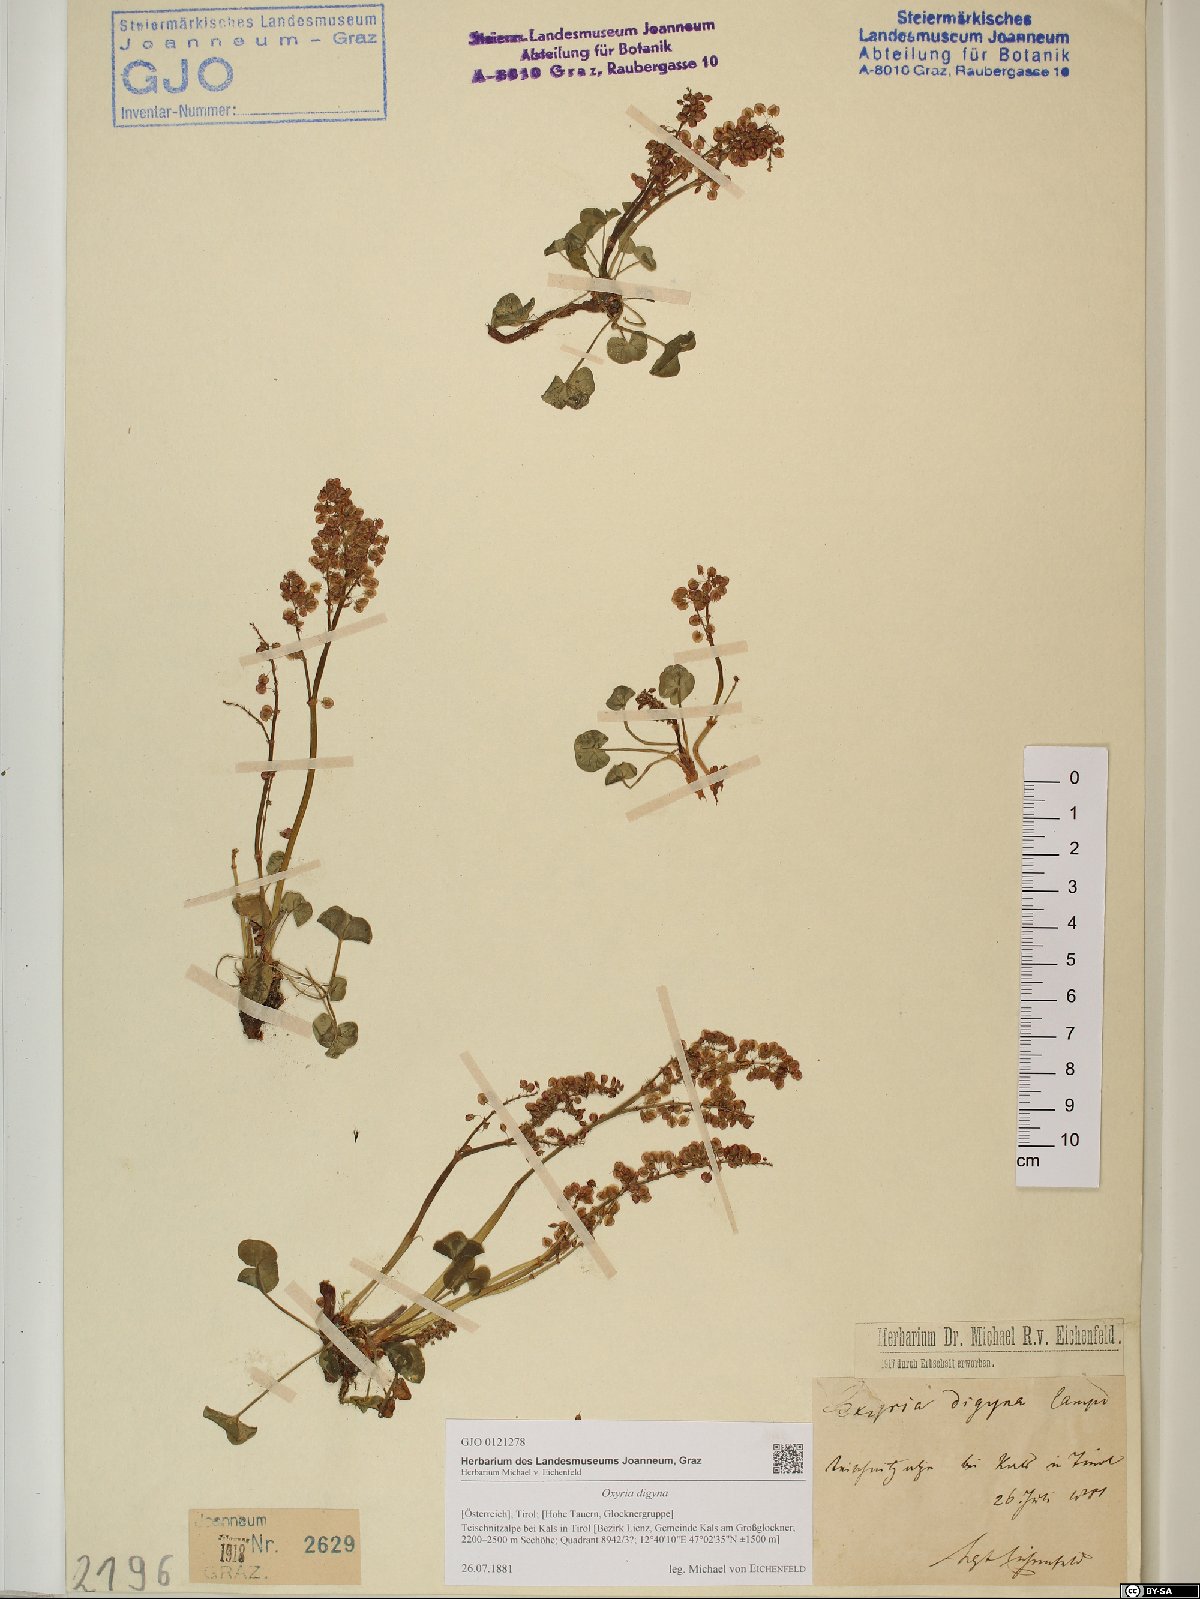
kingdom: Plantae
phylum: Tracheophyta
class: Magnoliopsida
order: Caryophyllales
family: Polygonaceae
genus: Oxyria
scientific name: Oxyria digyna
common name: Alpine mountain-sorrel
